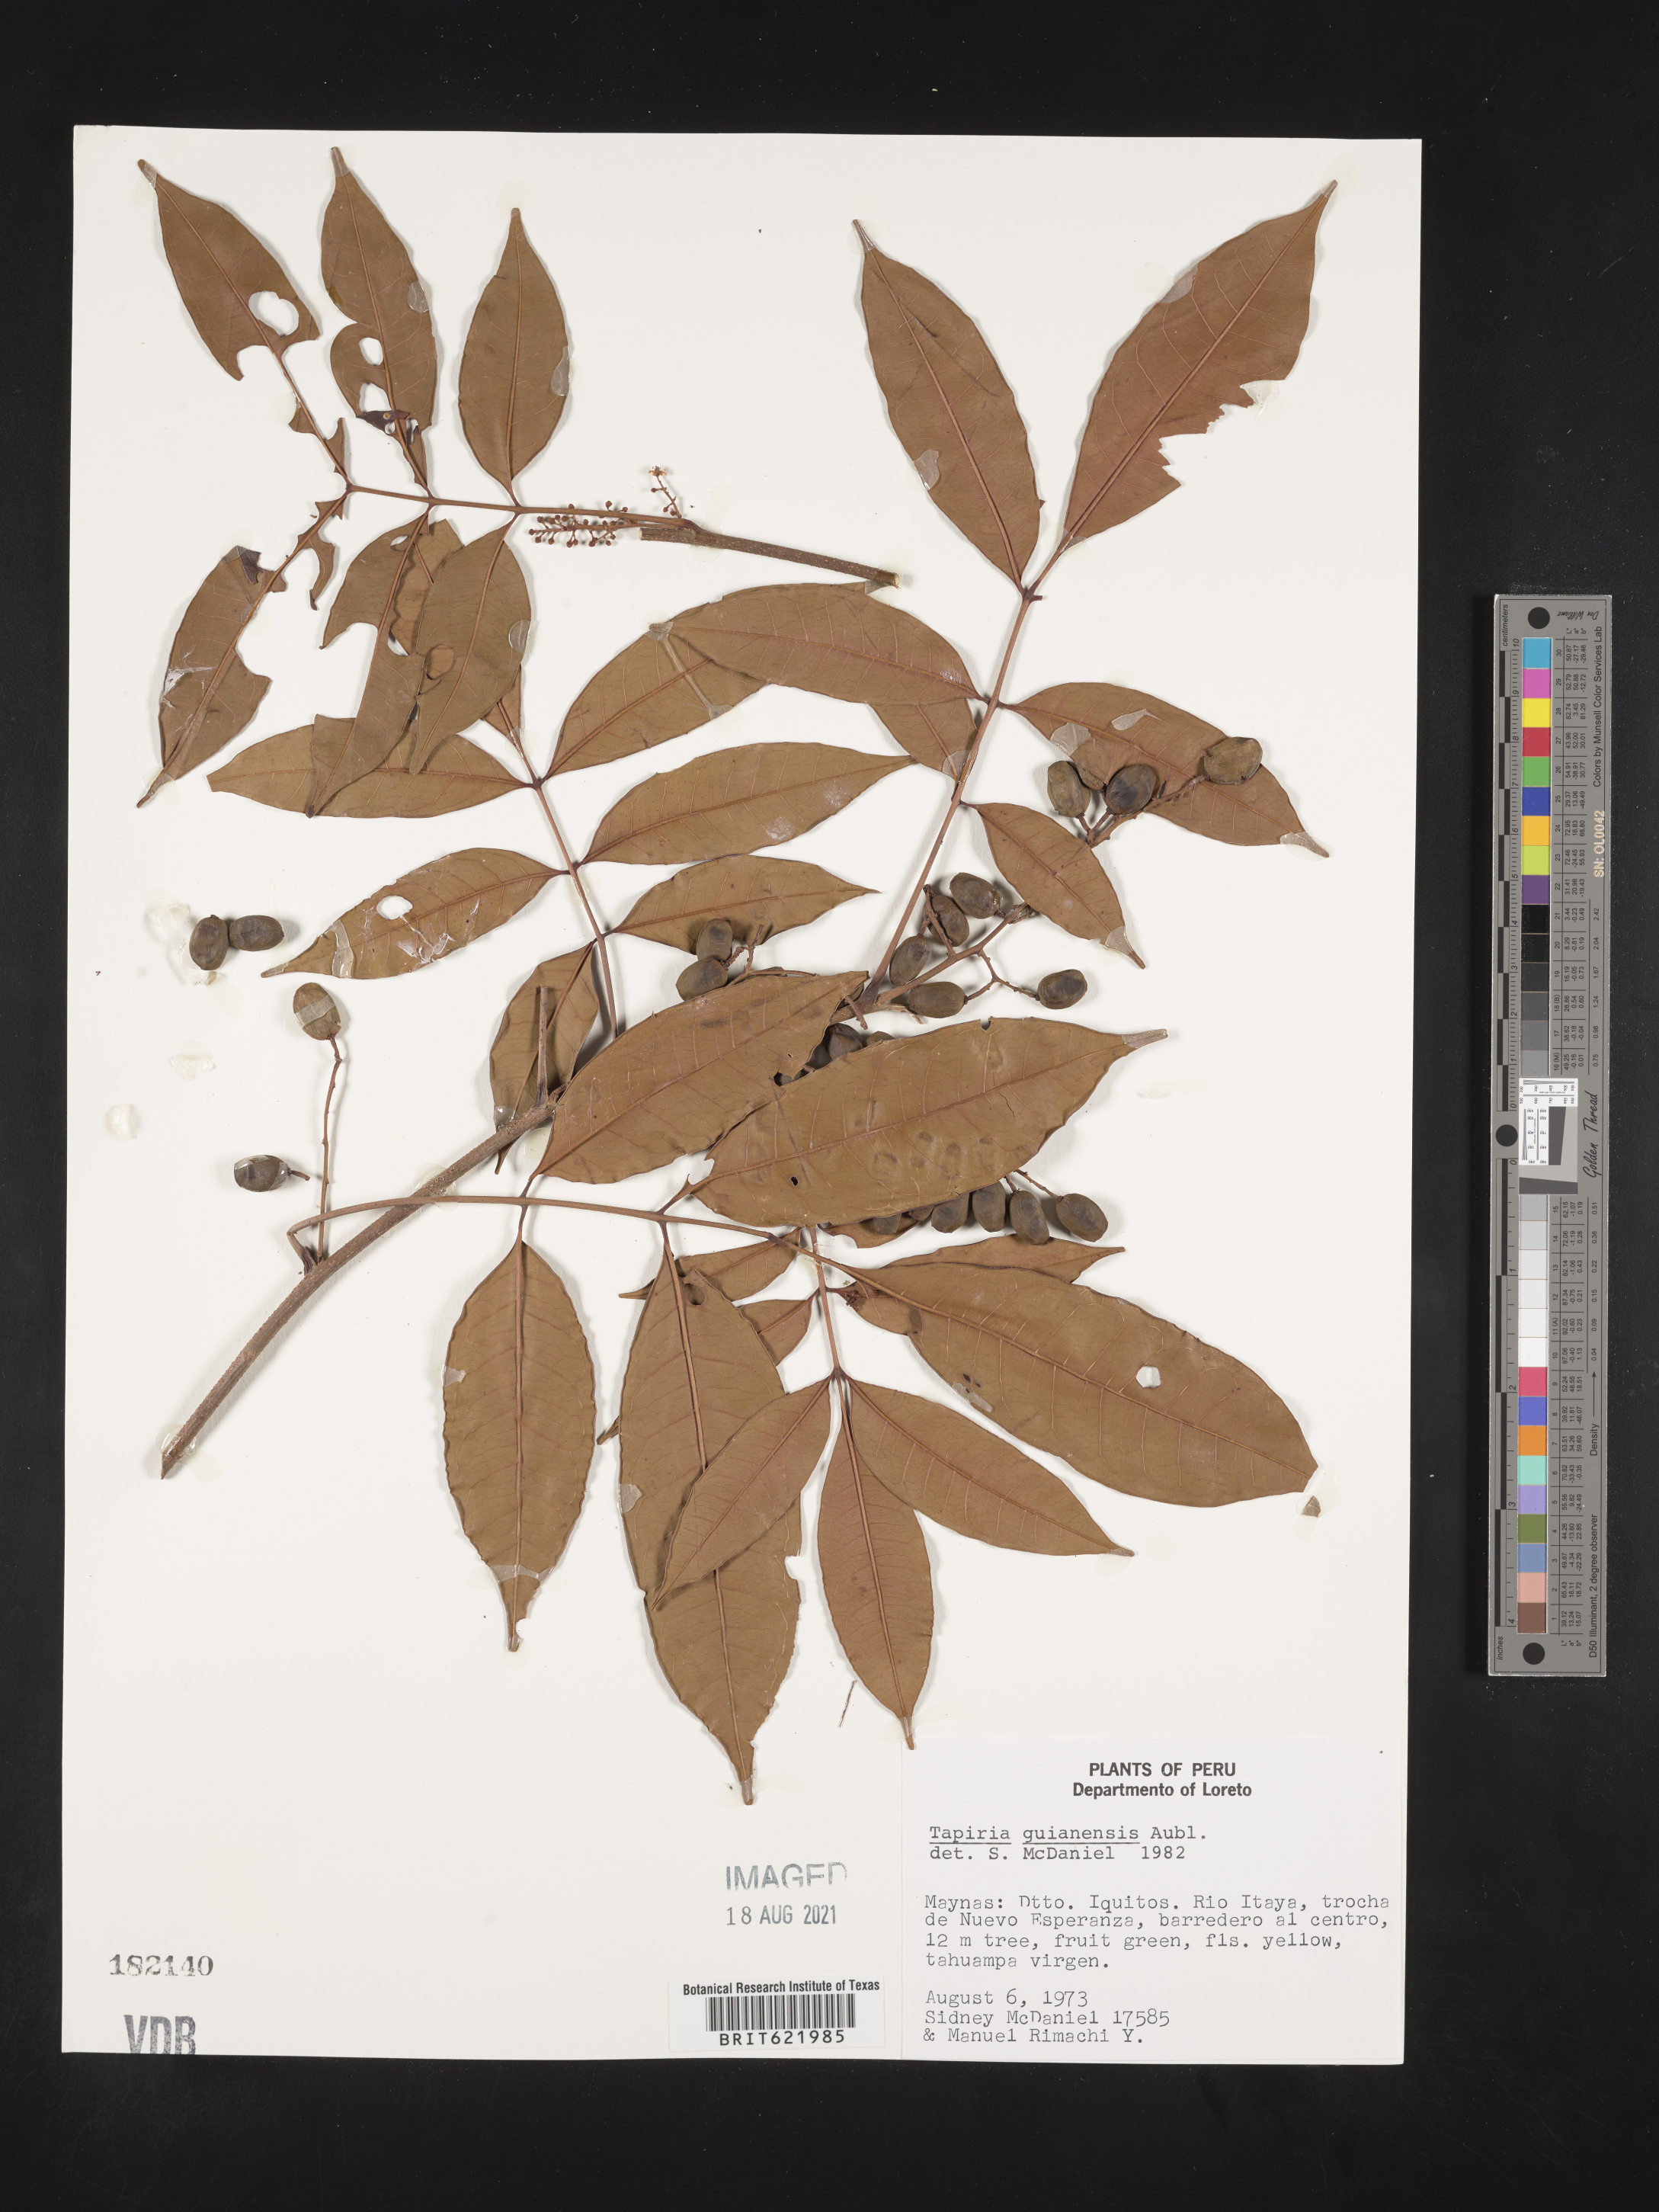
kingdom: Plantae
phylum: Tracheophyta
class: Magnoliopsida
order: Sapindales
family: Anacardiaceae
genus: Tapirira
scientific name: Tapirira guianensis
